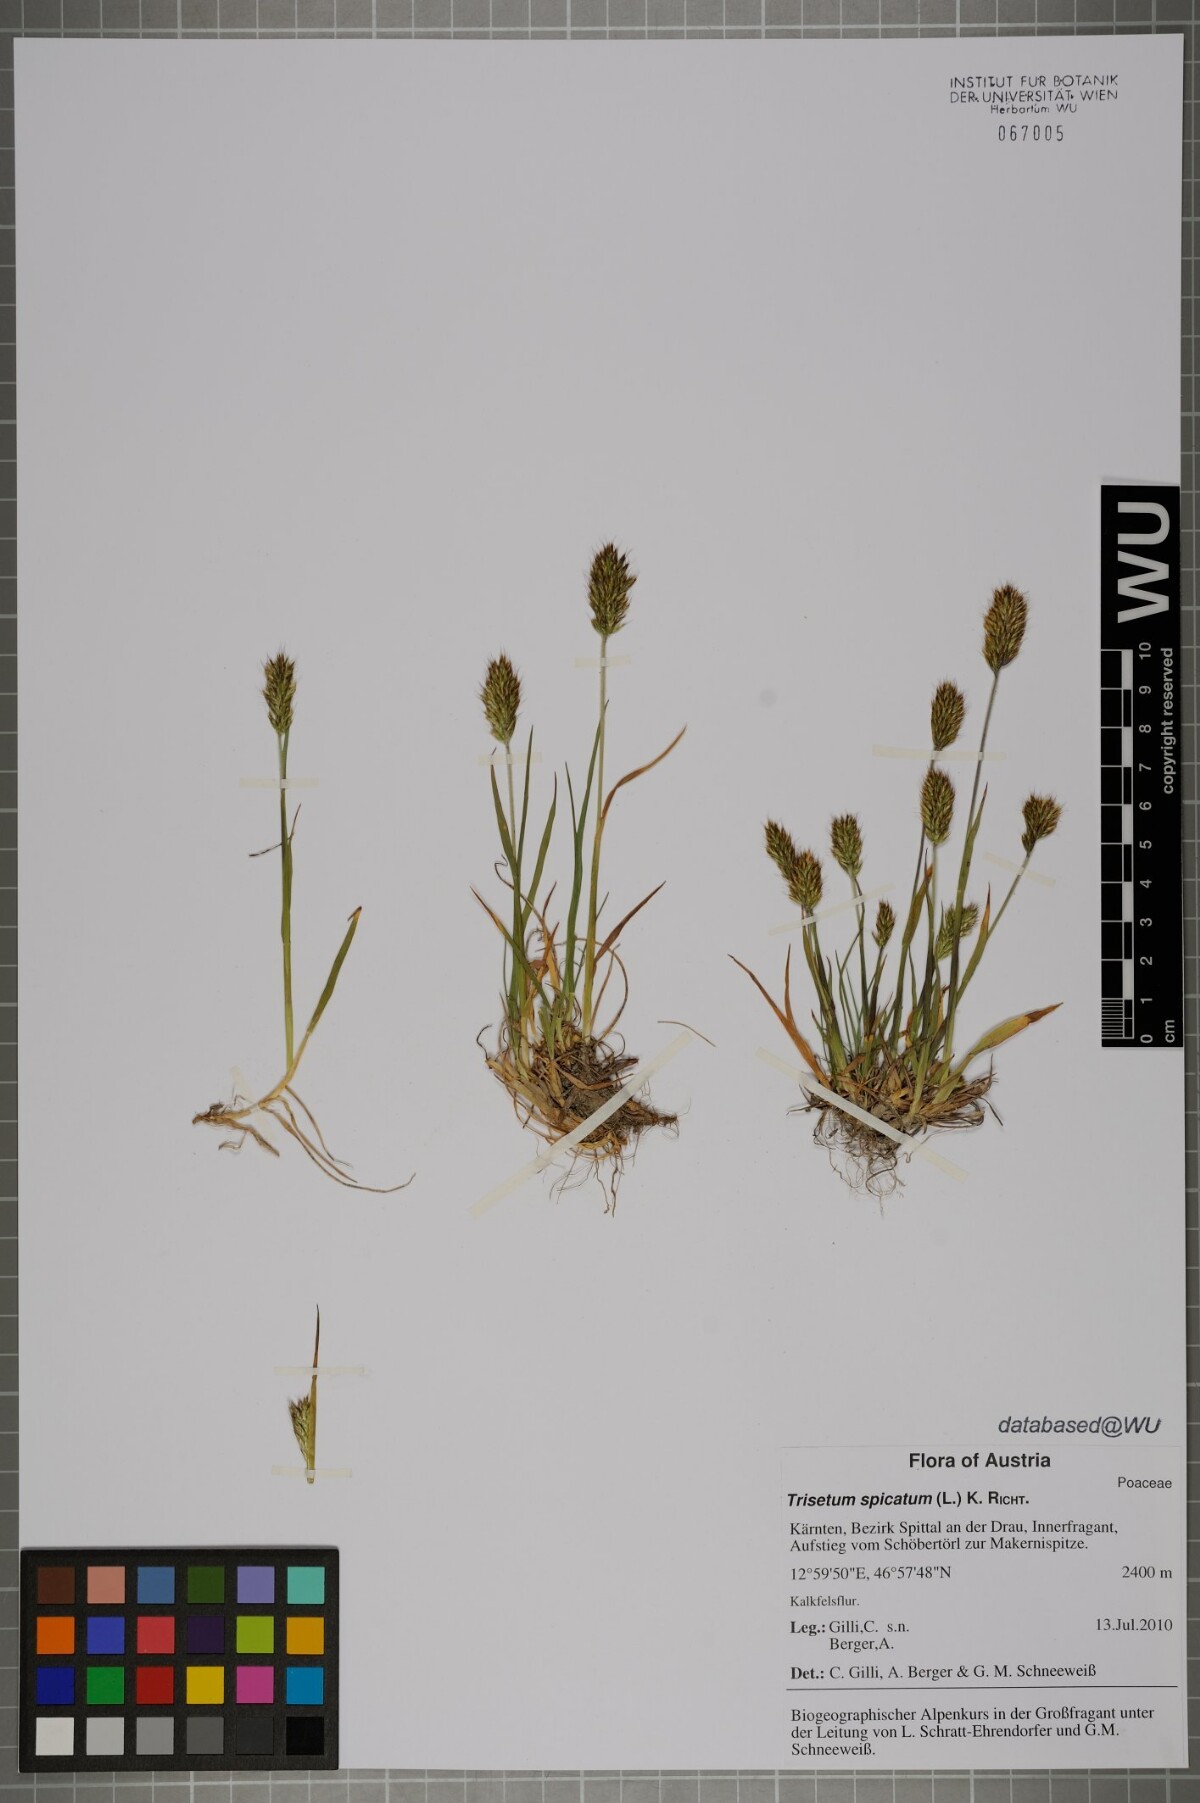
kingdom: Plantae
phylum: Tracheophyta
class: Liliopsida
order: Poales
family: Poaceae
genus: Koeleria
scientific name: Koeleria spicata
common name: Mountain trisetum
